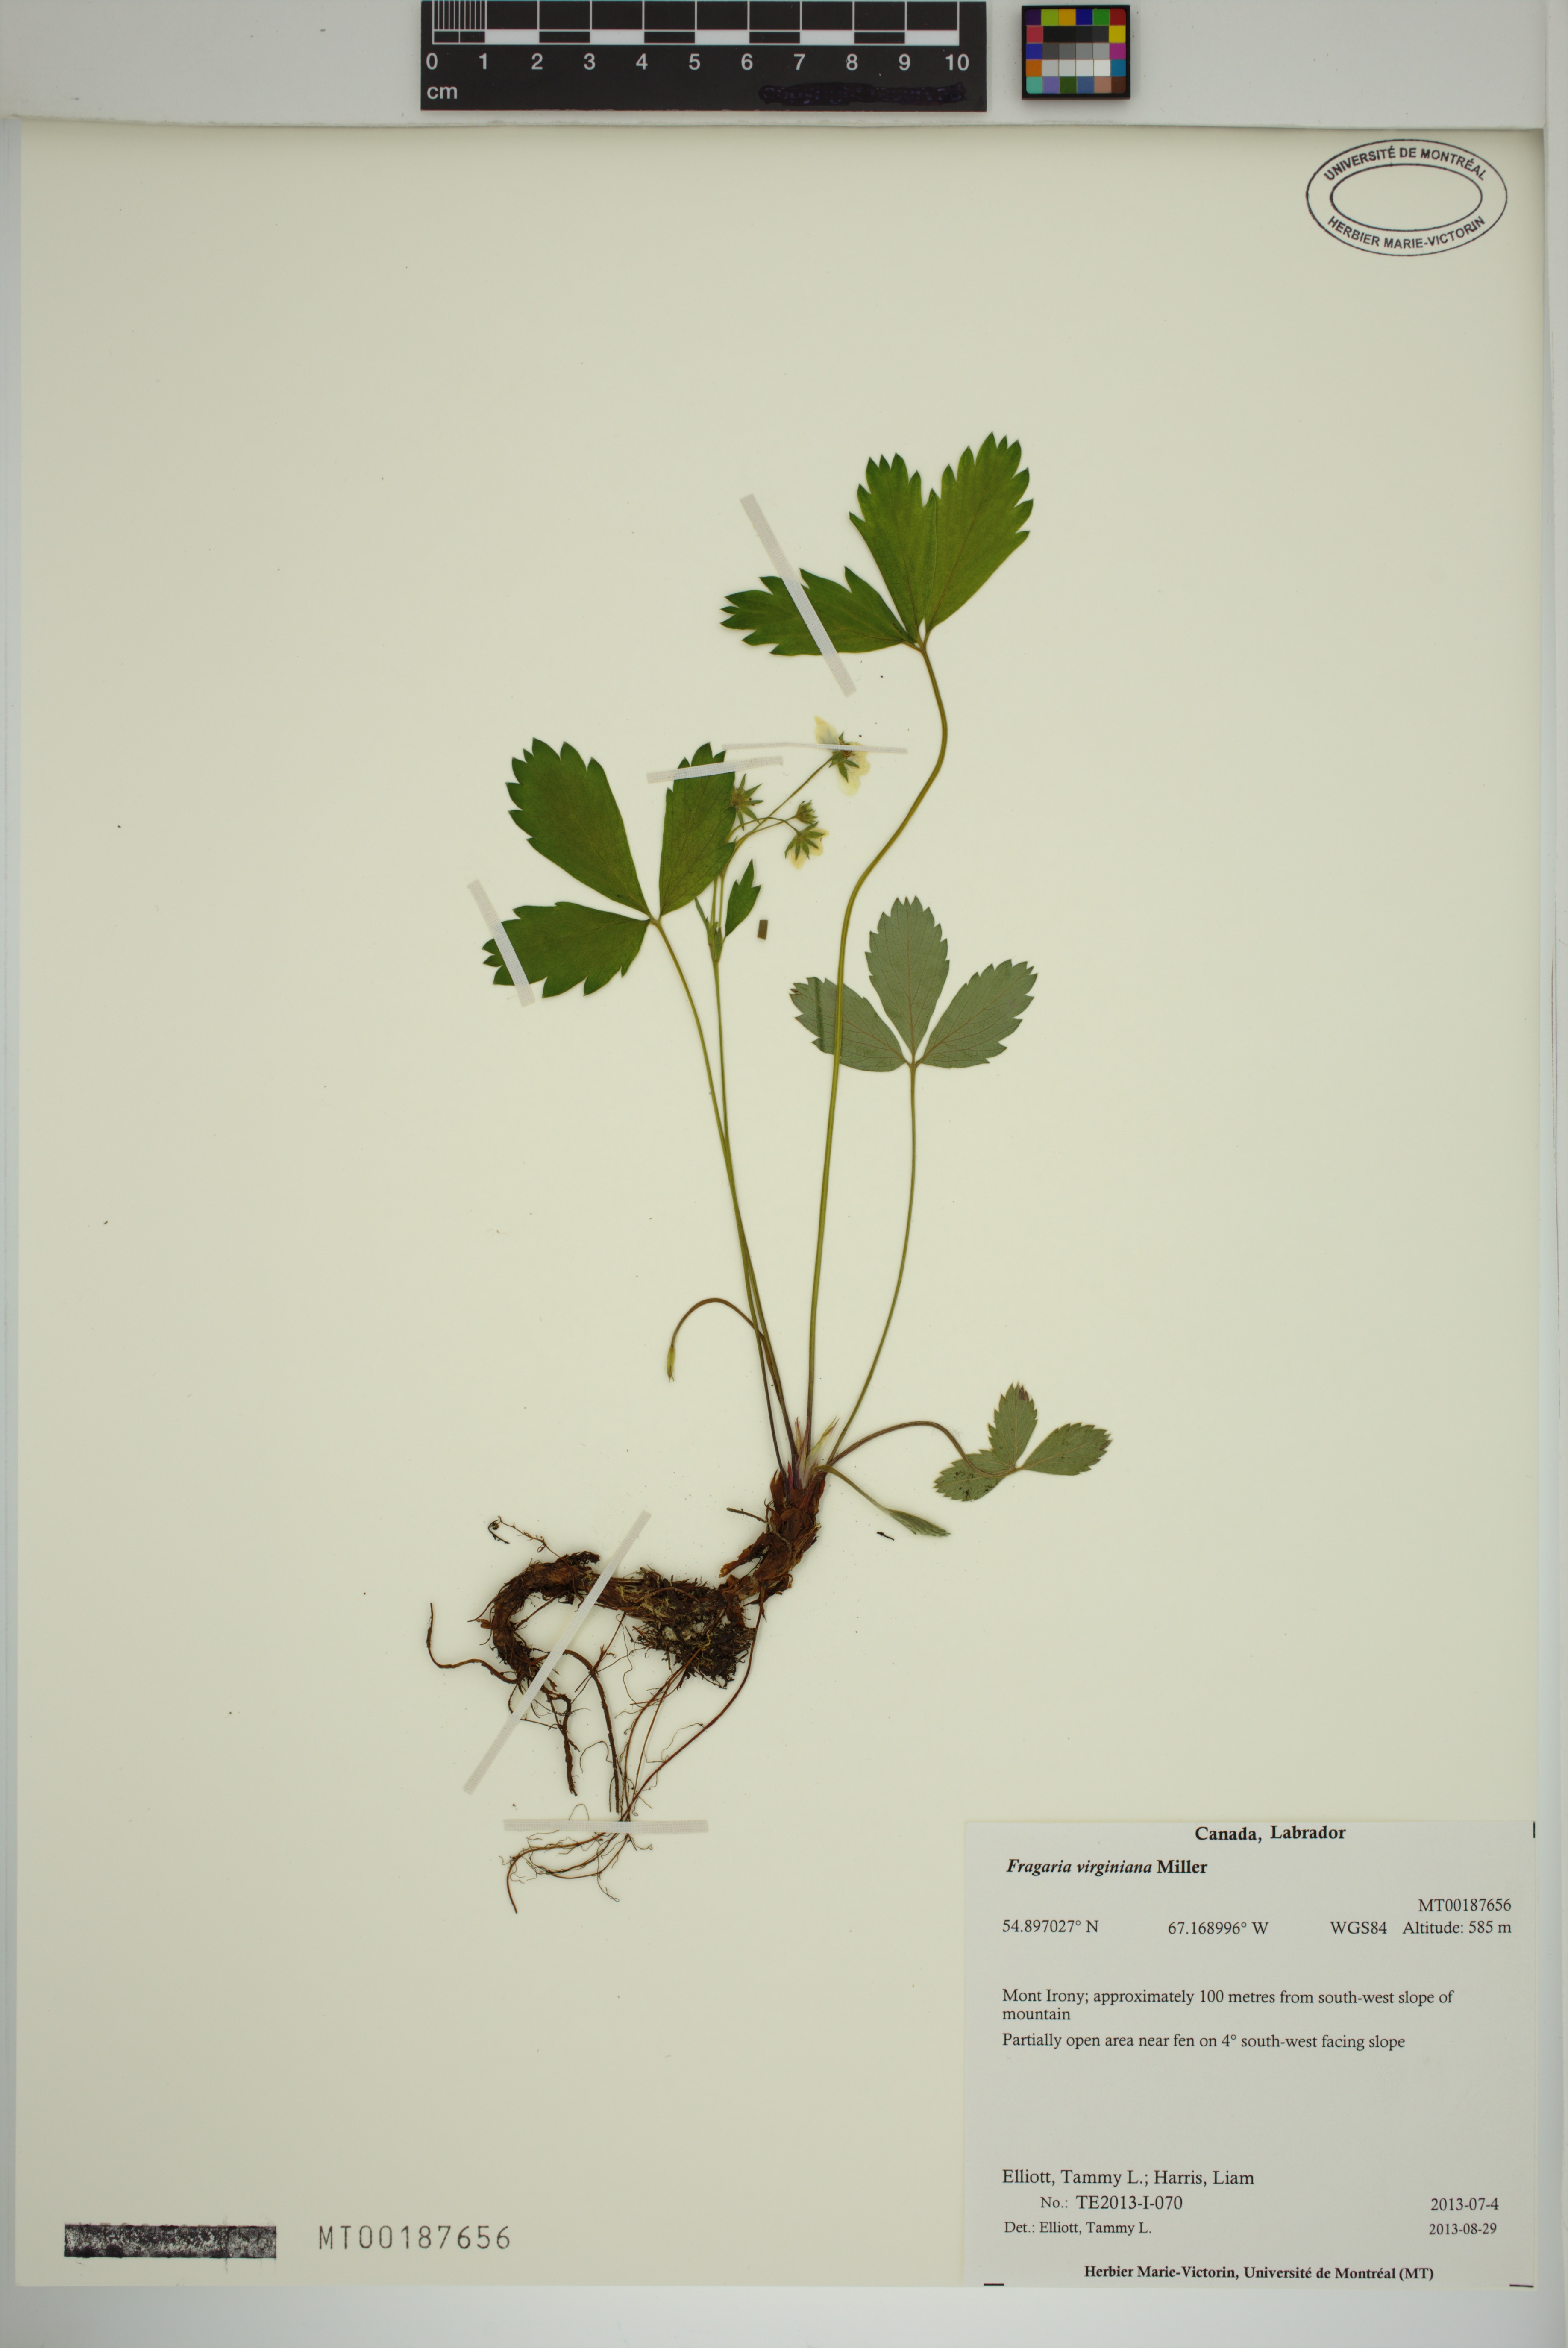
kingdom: Plantae
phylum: Tracheophyta
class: Magnoliopsida
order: Rosales
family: Rosaceae
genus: Fragaria
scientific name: Fragaria virginiana
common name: Thickleaved wild strawberry
